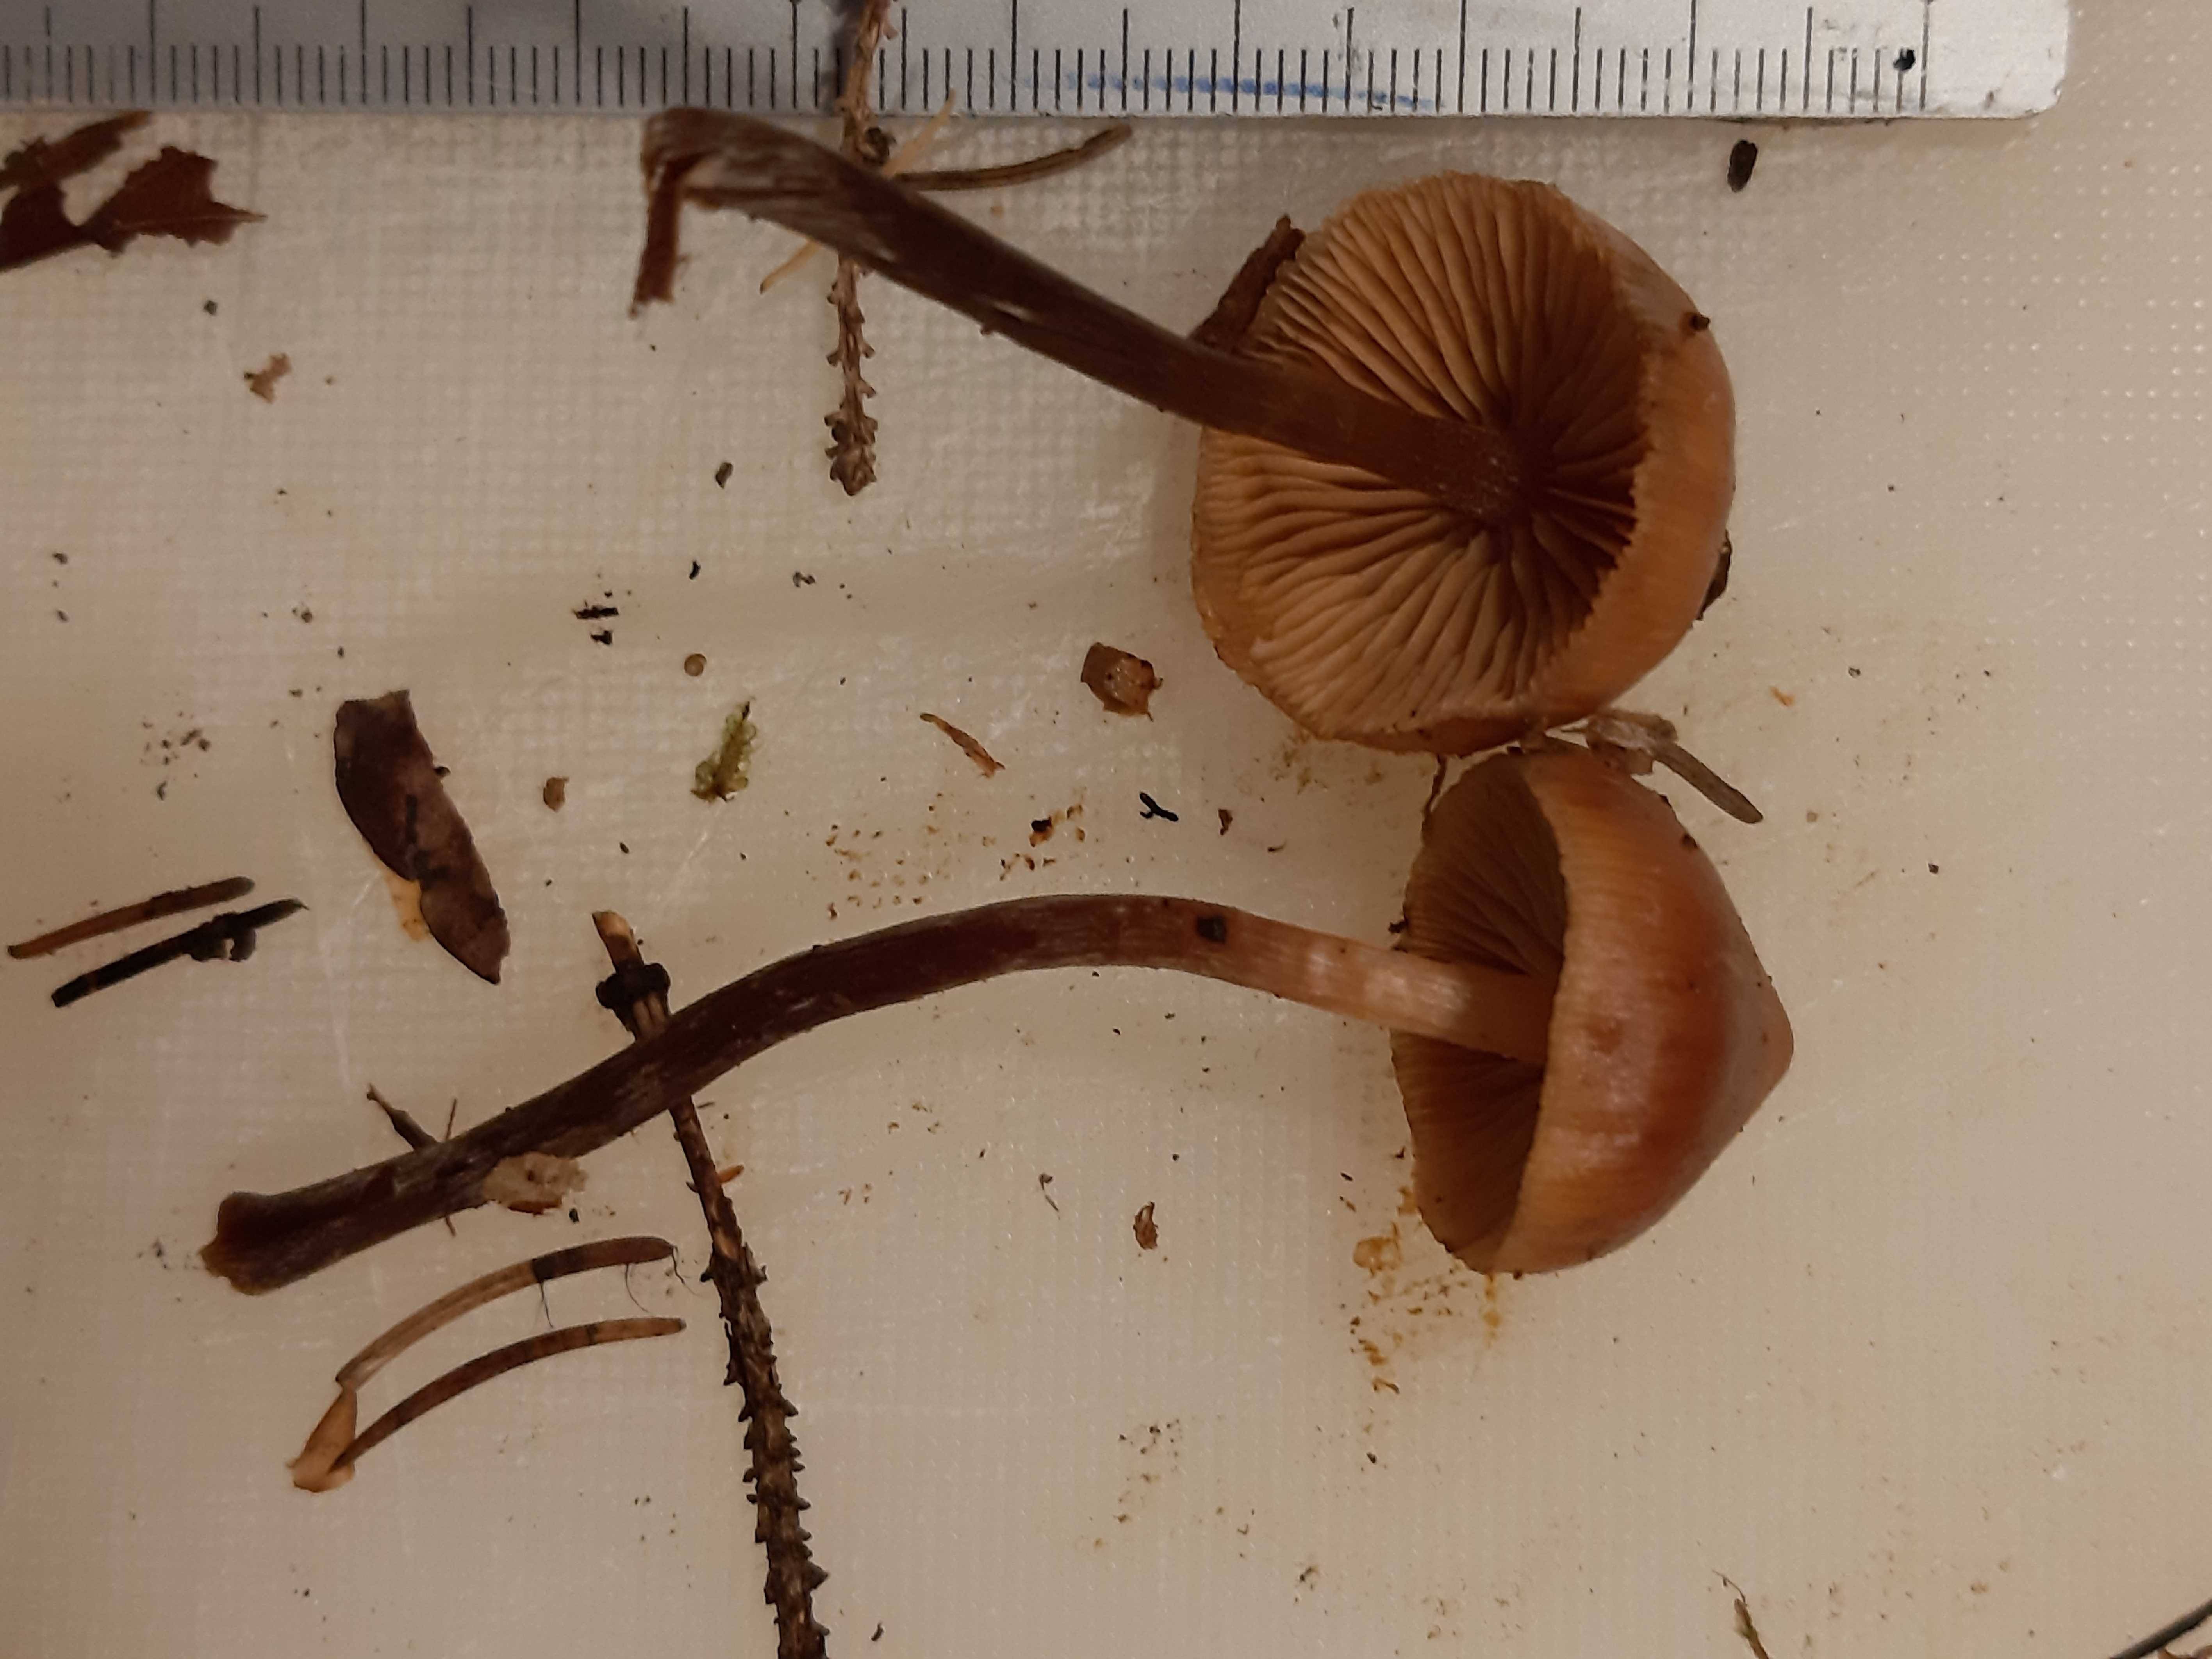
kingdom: Fungi
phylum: Basidiomycota
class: Agaricomycetes
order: Agaricales
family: Hymenogastraceae
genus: Galerina
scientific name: Galerina
